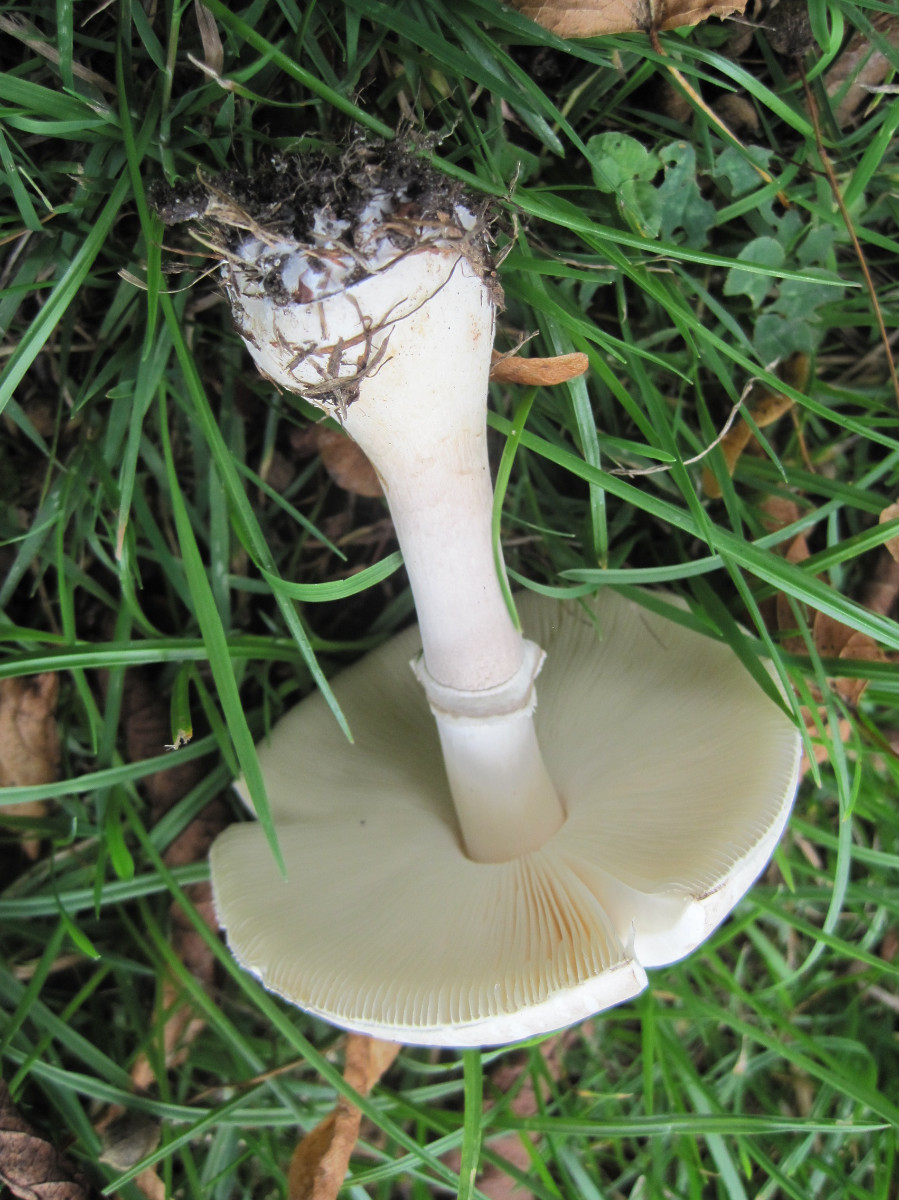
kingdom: Fungi
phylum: Basidiomycota
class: Agaricomycetes
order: Agaricales
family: Agaricaceae
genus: Leucoagaricus
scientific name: Leucoagaricus leucothites
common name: rosabladet silkehat
